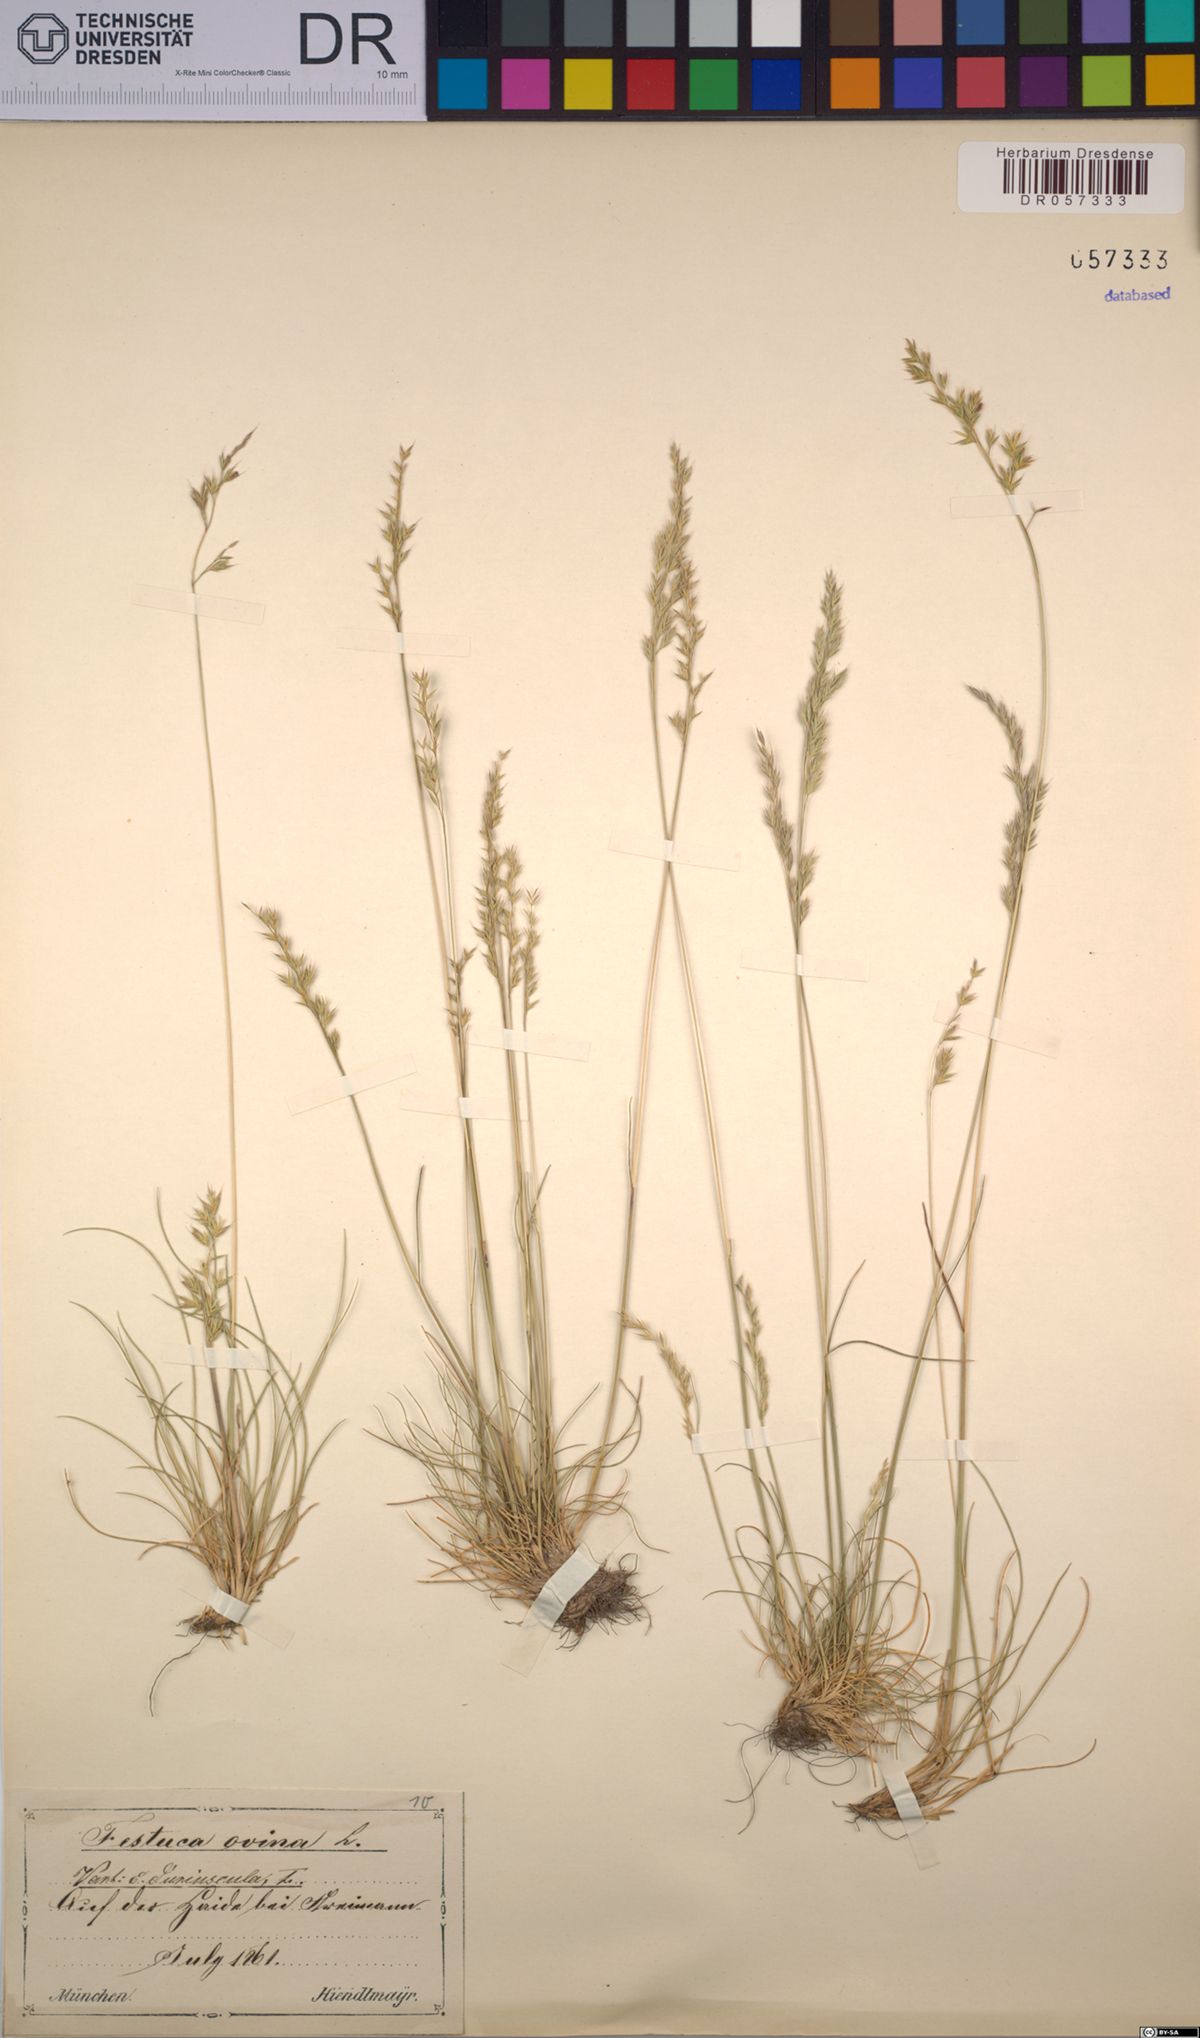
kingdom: Plantae
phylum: Tracheophyta
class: Liliopsida
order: Poales
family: Poaceae
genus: Festuca
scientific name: Festuca ovina
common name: Sheep fescue
